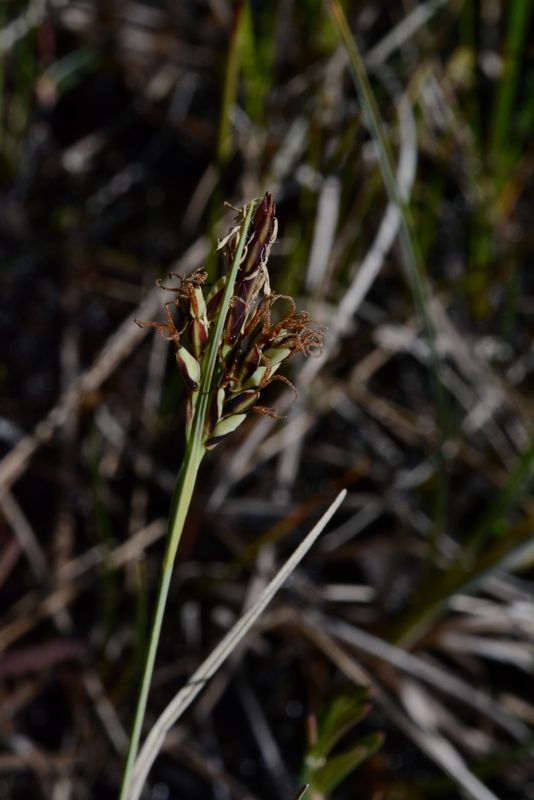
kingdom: Plantae
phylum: Tracheophyta
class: Liliopsida
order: Poales
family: Cyperaceae
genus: Carex
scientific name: Carex livida
